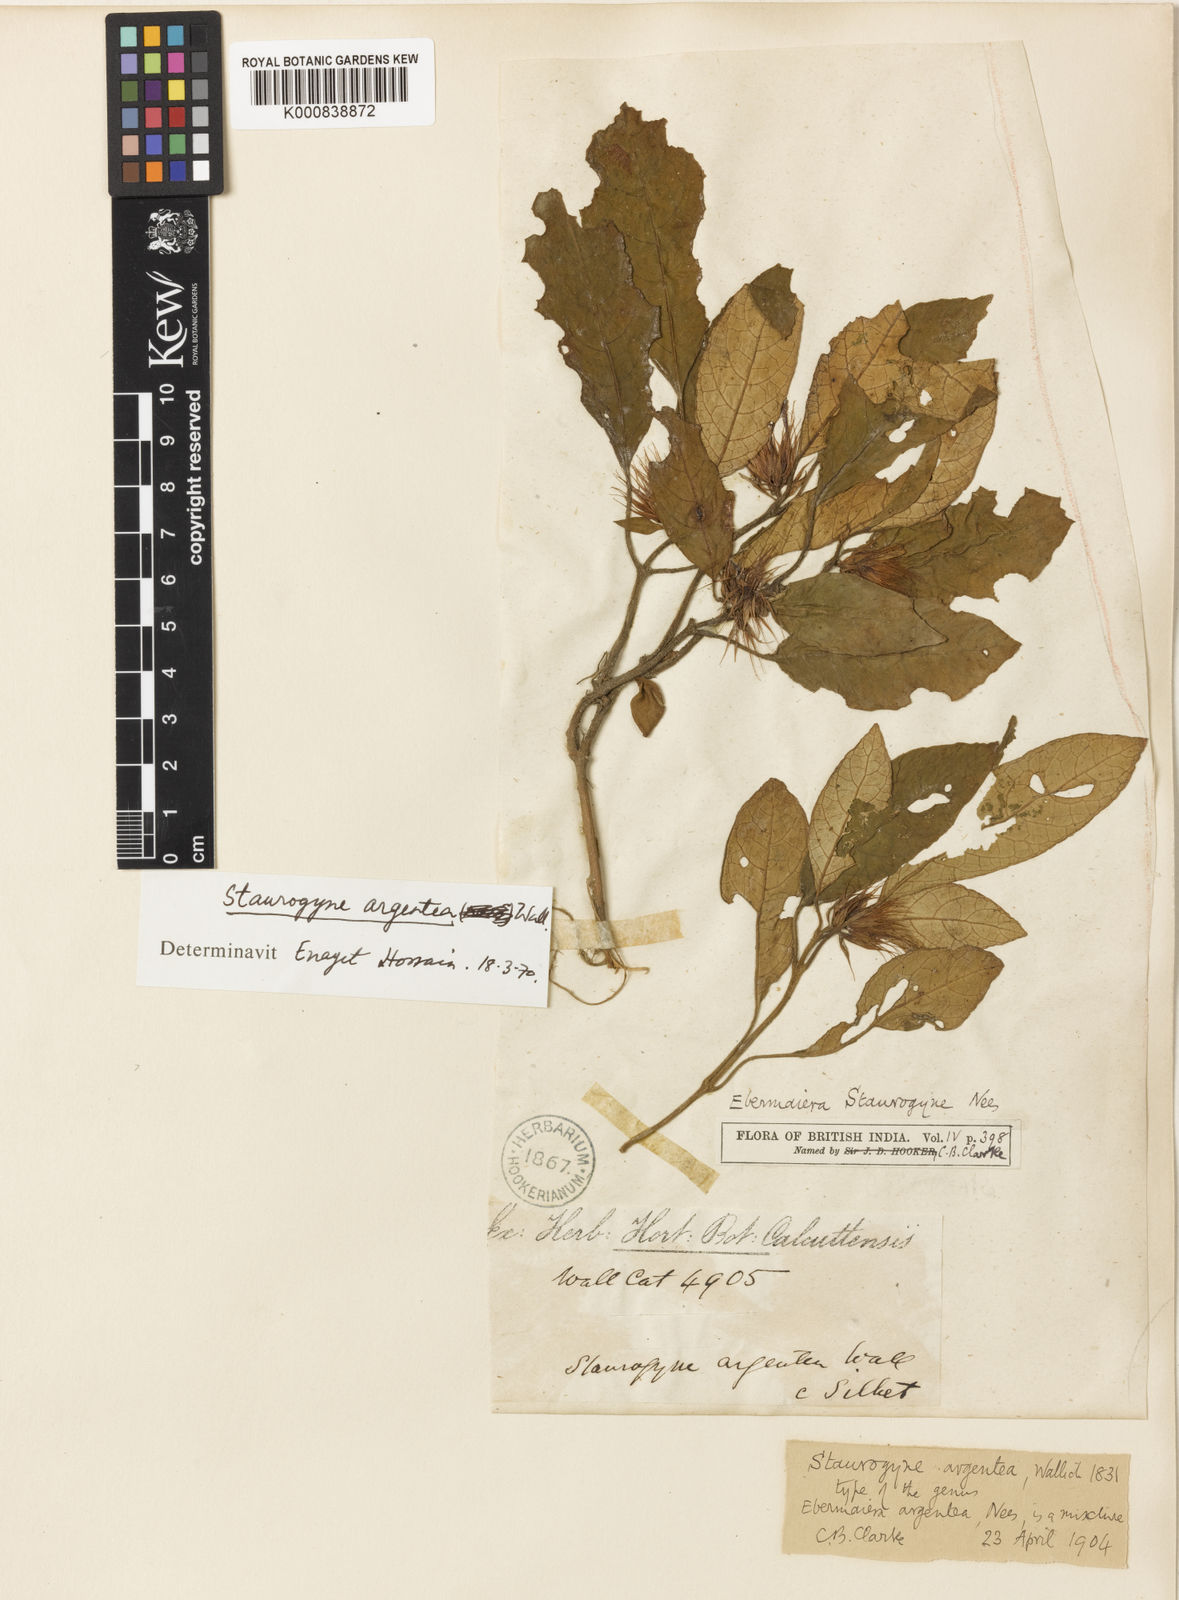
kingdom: Plantae
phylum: Tracheophyta
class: Magnoliopsida
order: Lamiales
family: Acanthaceae
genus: Staurogyne
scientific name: Staurogyne argentea
